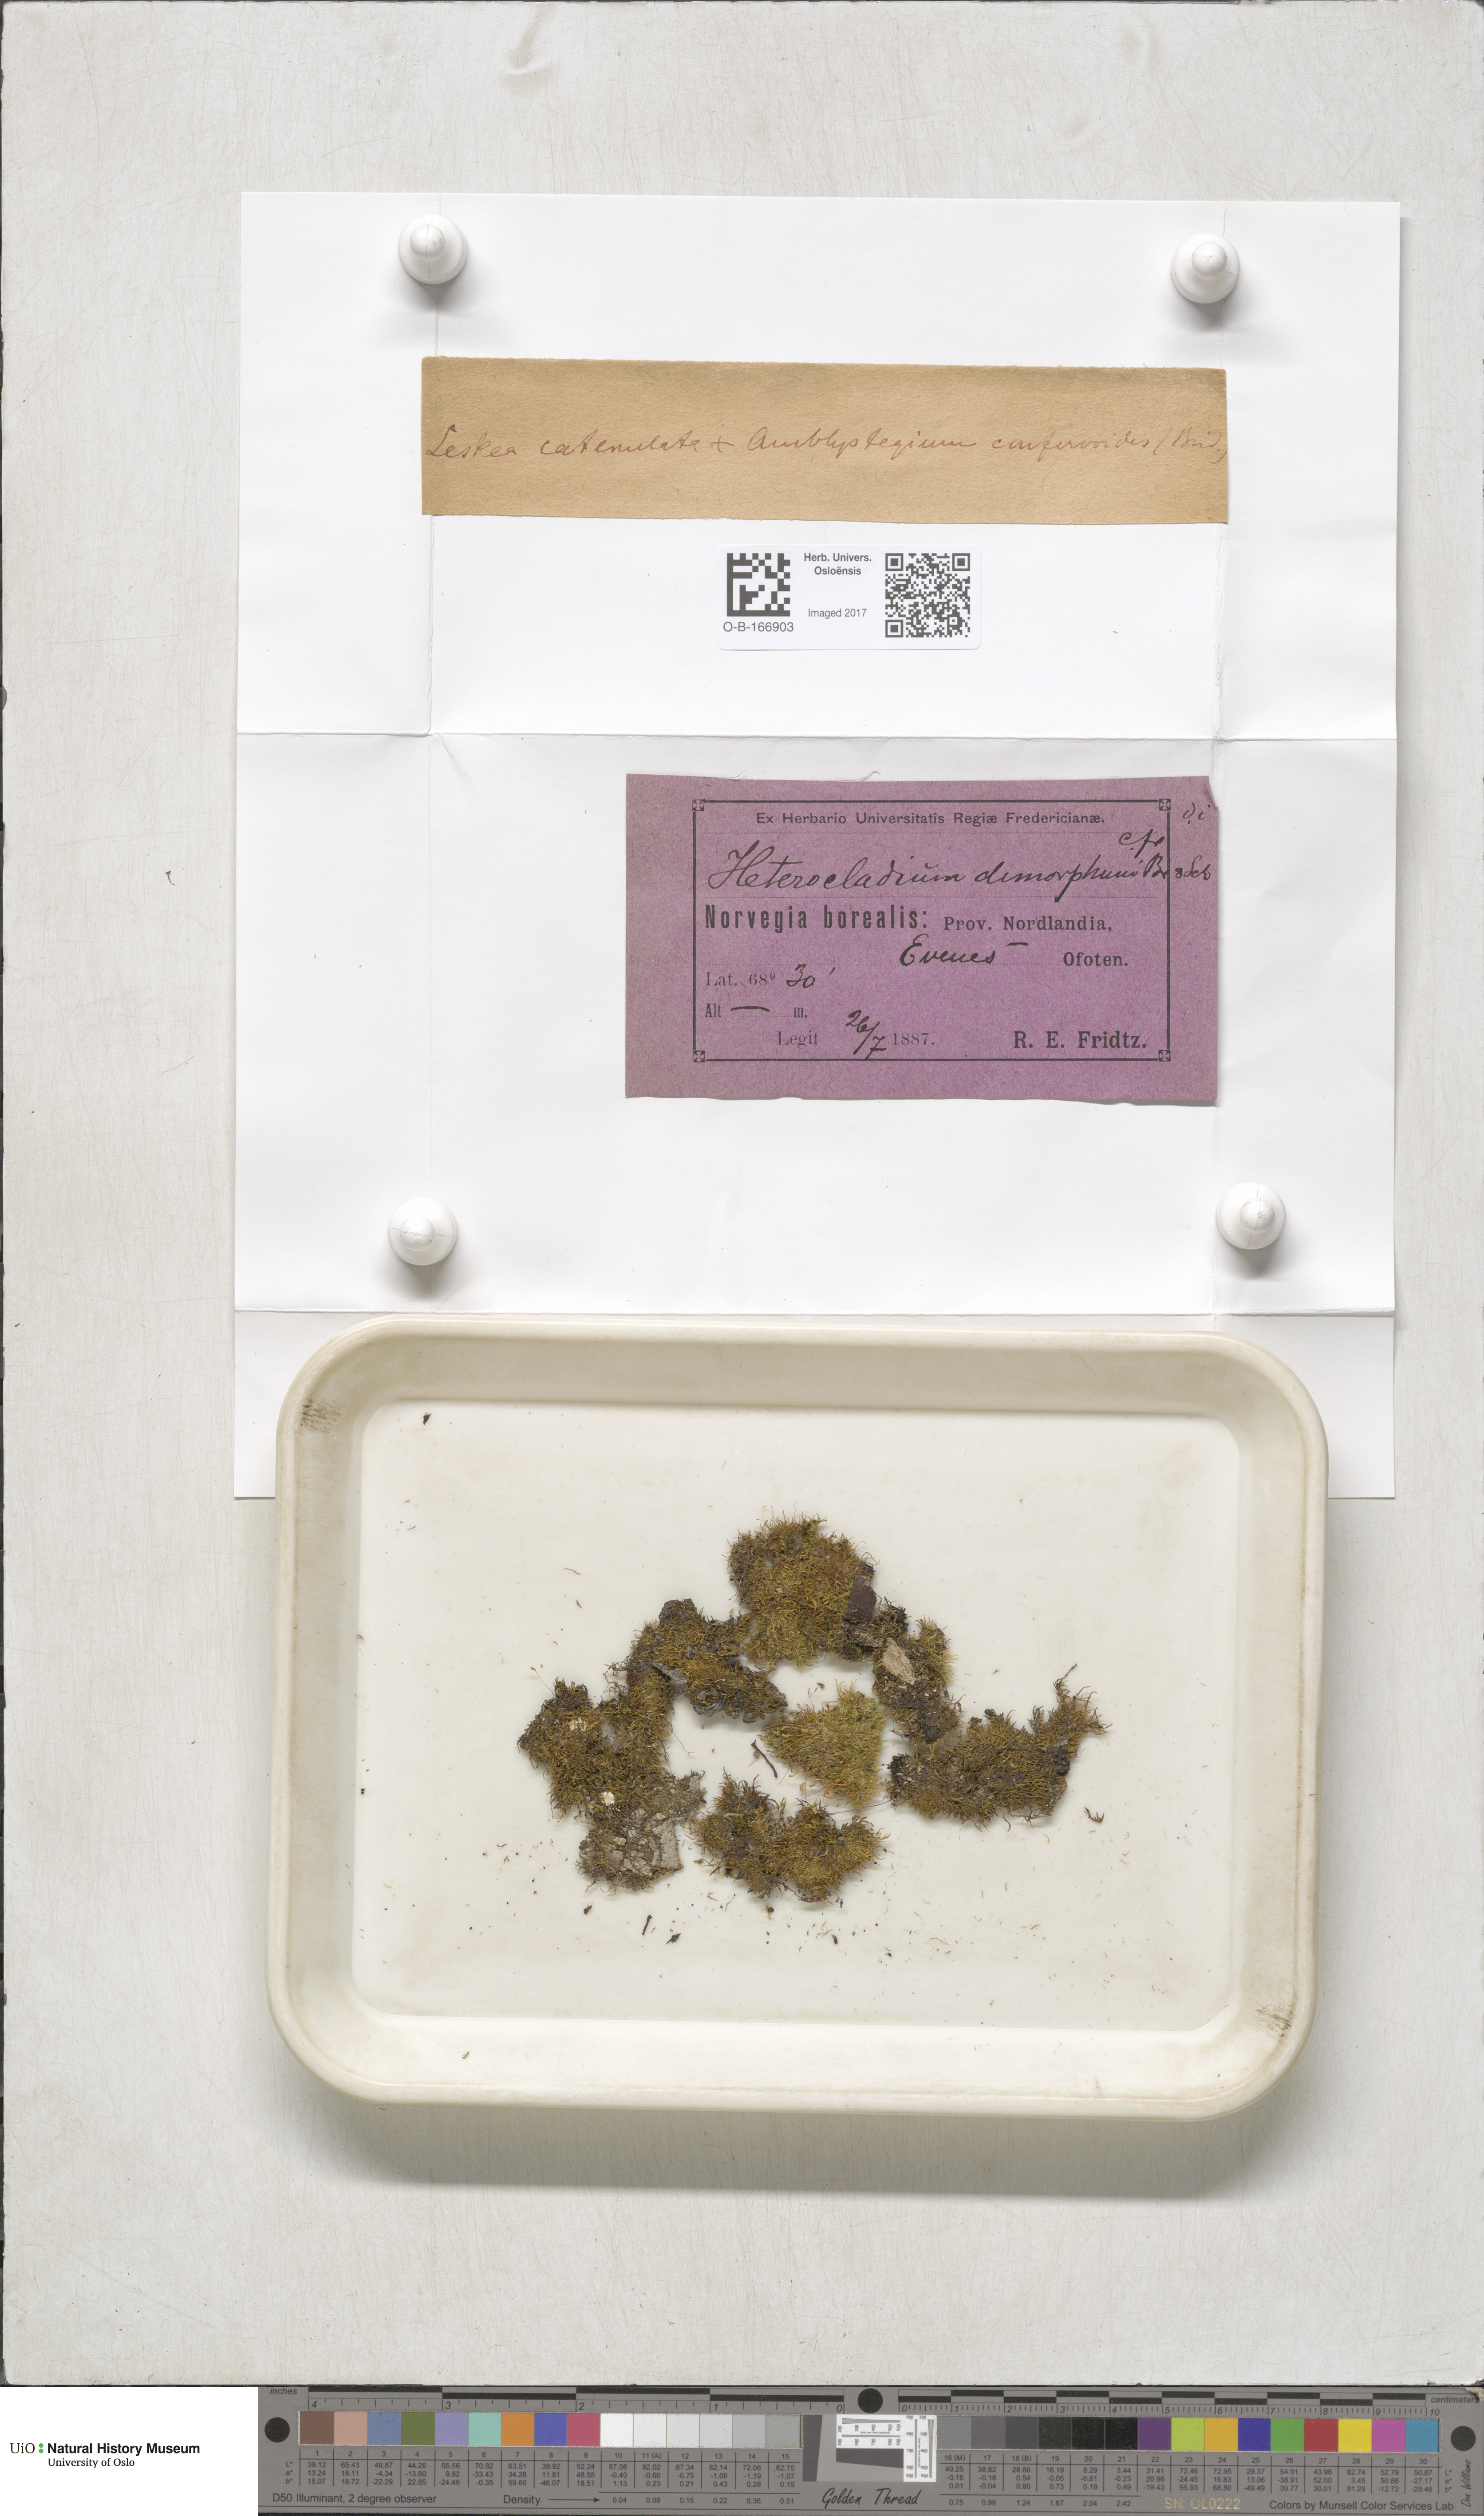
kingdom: Plantae
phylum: Bryophyta
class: Bryopsida
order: Hypnales
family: Pseudoleskeellaceae
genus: Pseudoleskeella
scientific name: Pseudoleskeella catenulata
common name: Chained leskea
